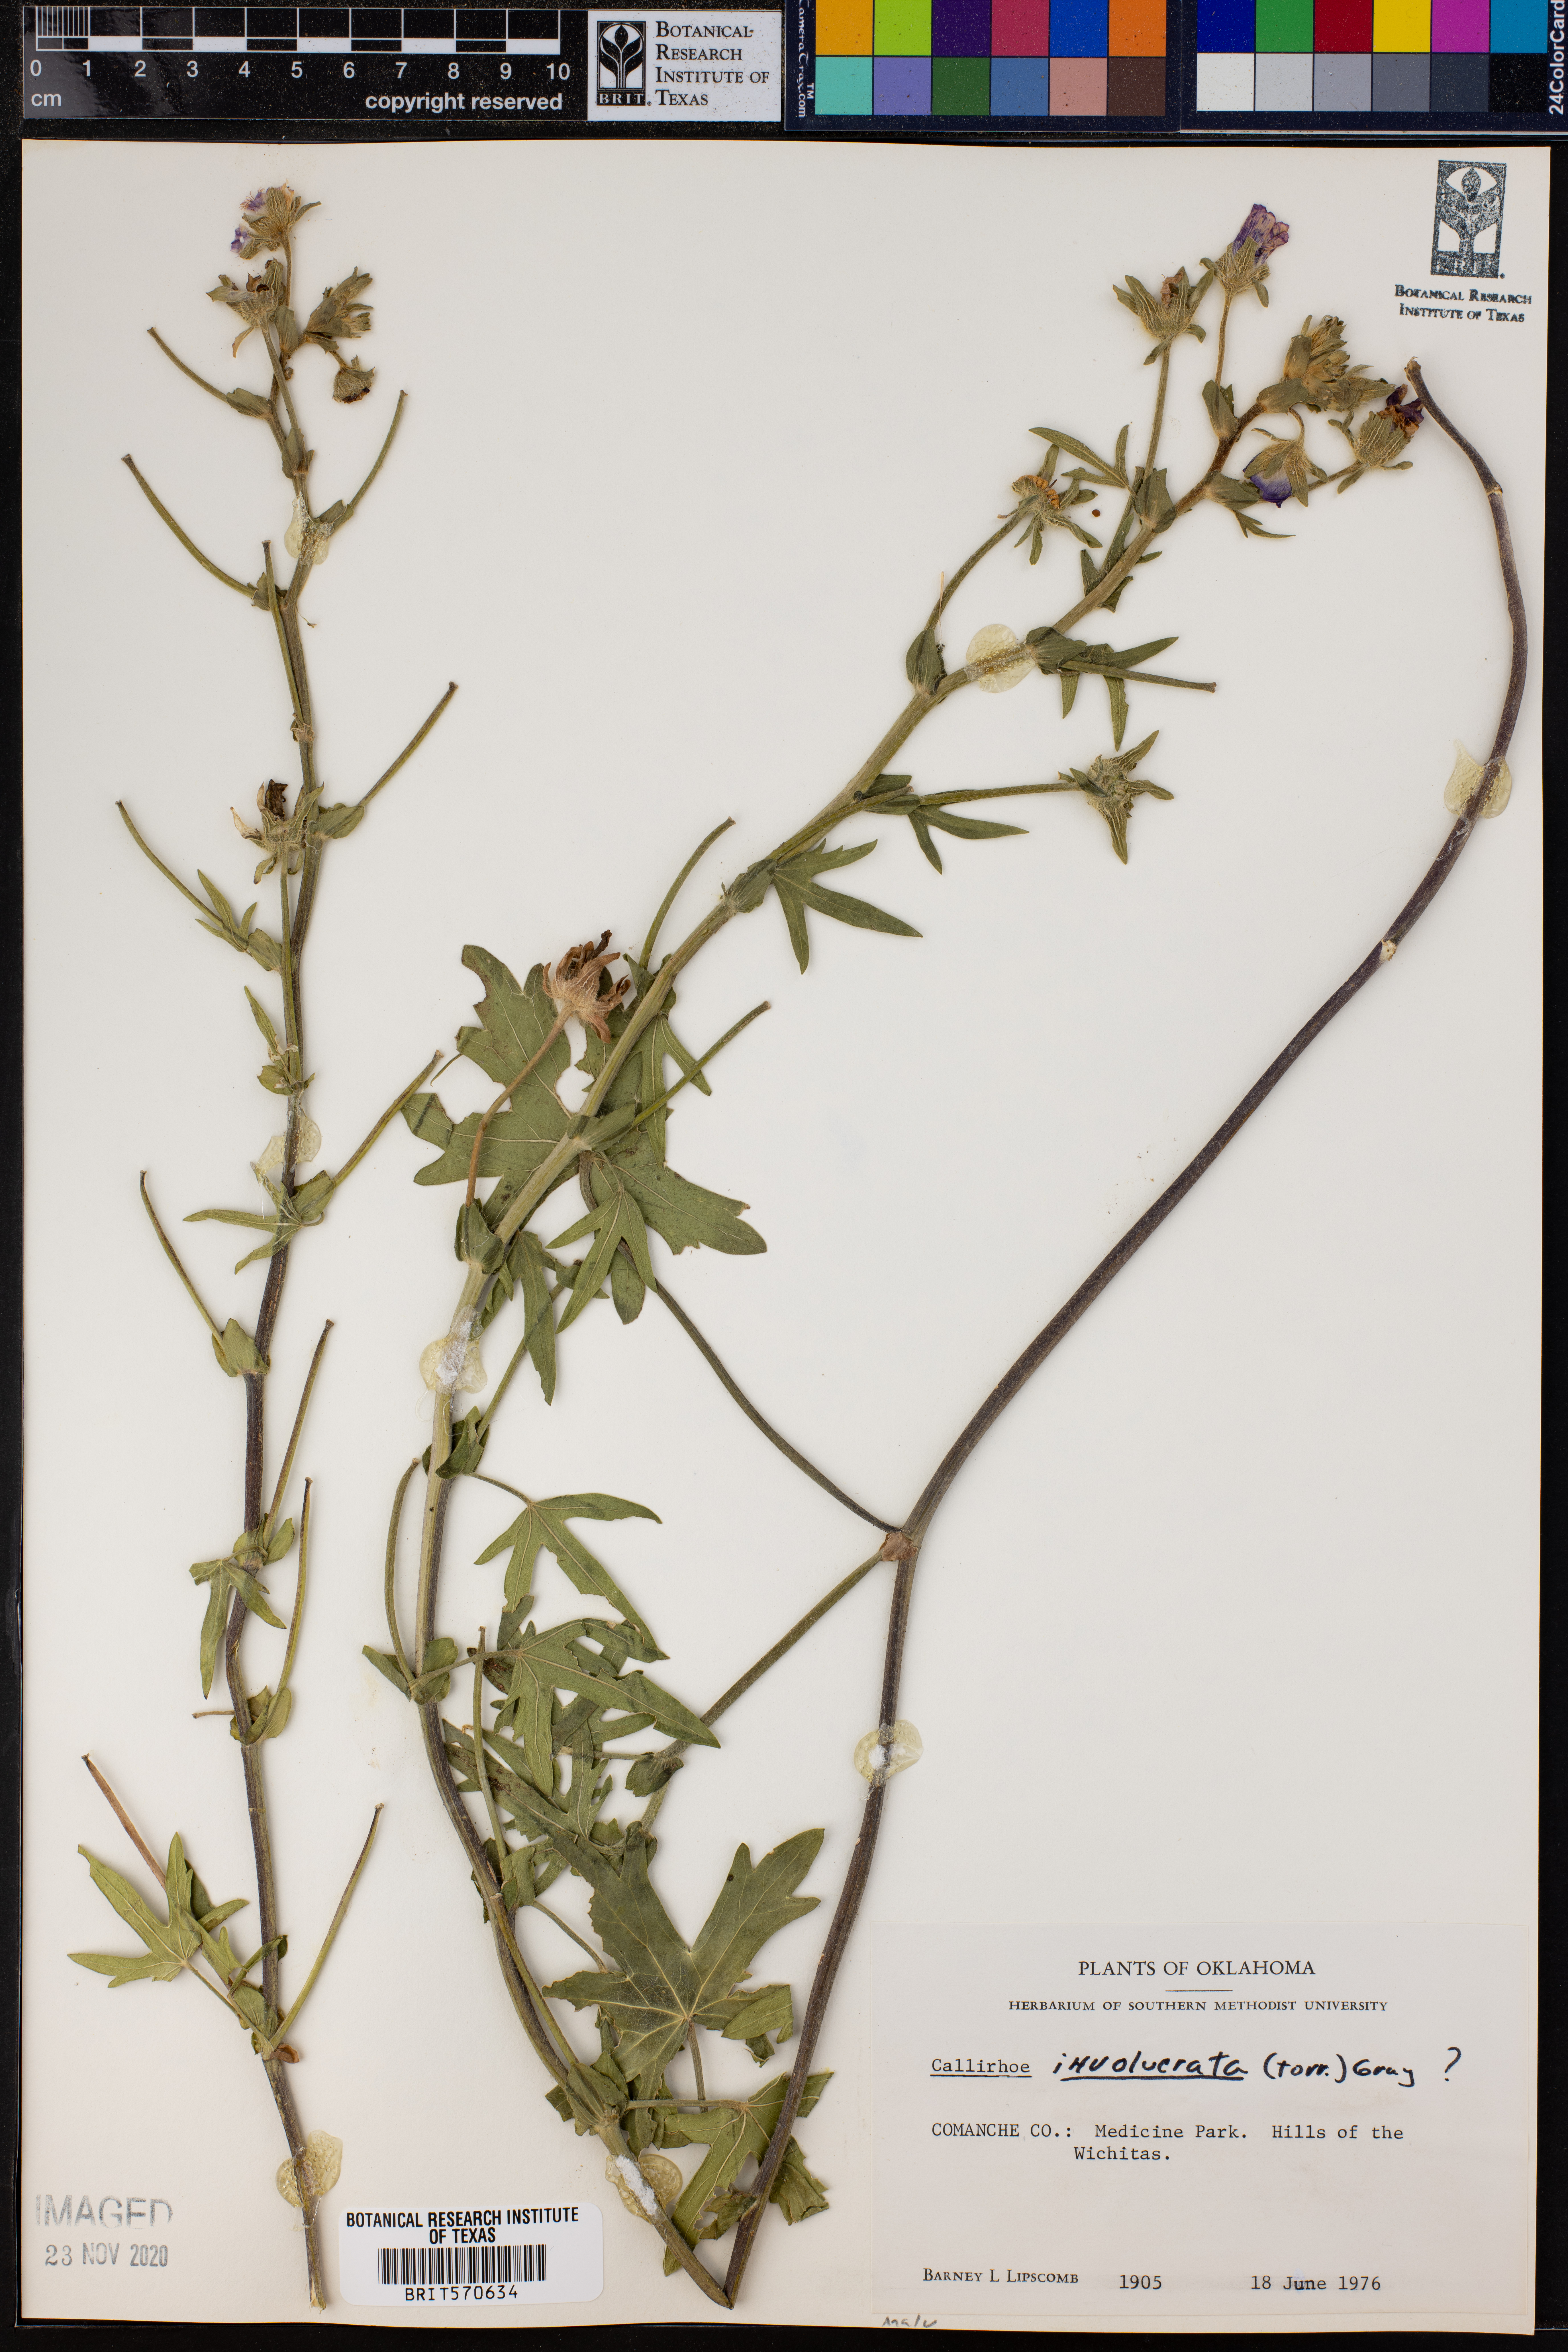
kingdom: Plantae
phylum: Tracheophyta
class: Magnoliopsida
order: Malvales
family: Malvaceae
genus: Callirhoe
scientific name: Callirhoe involucrata
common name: Purple poppy-mallow
